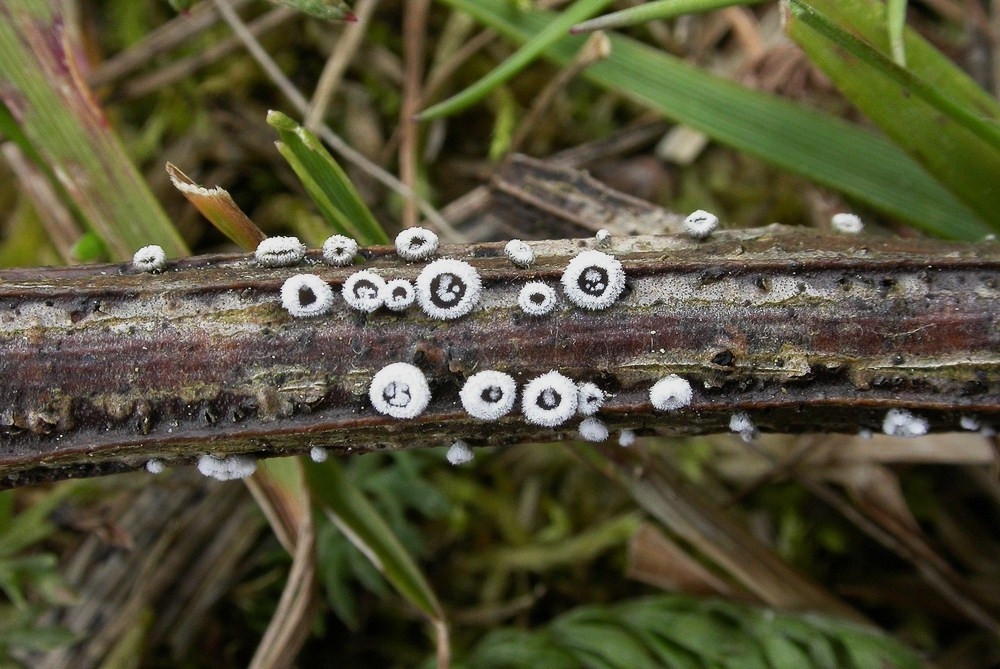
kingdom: Fungi
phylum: Basidiomycota
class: Agaricomycetes
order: Agaricales
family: Niaceae
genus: Lachnella
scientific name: Lachnella alboviolascens
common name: grå frynserede
